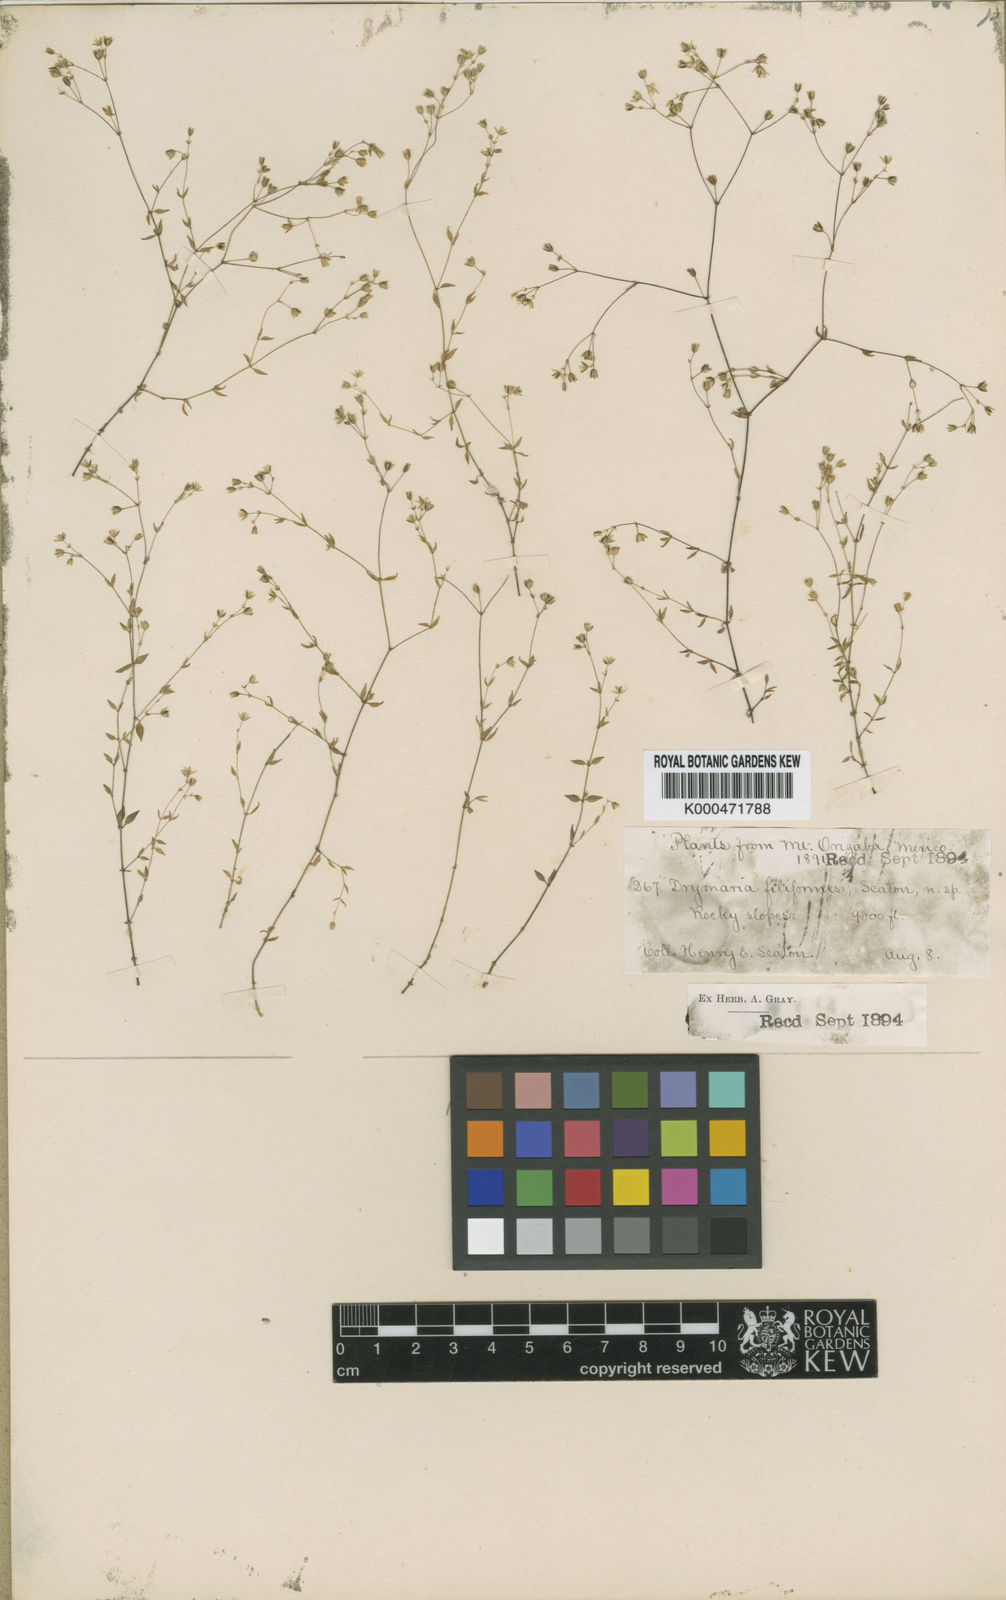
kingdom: Plantae
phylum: Tracheophyta
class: Magnoliopsida
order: Caryophyllales
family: Caryophyllaceae
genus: Drymaria
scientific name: Drymaria
